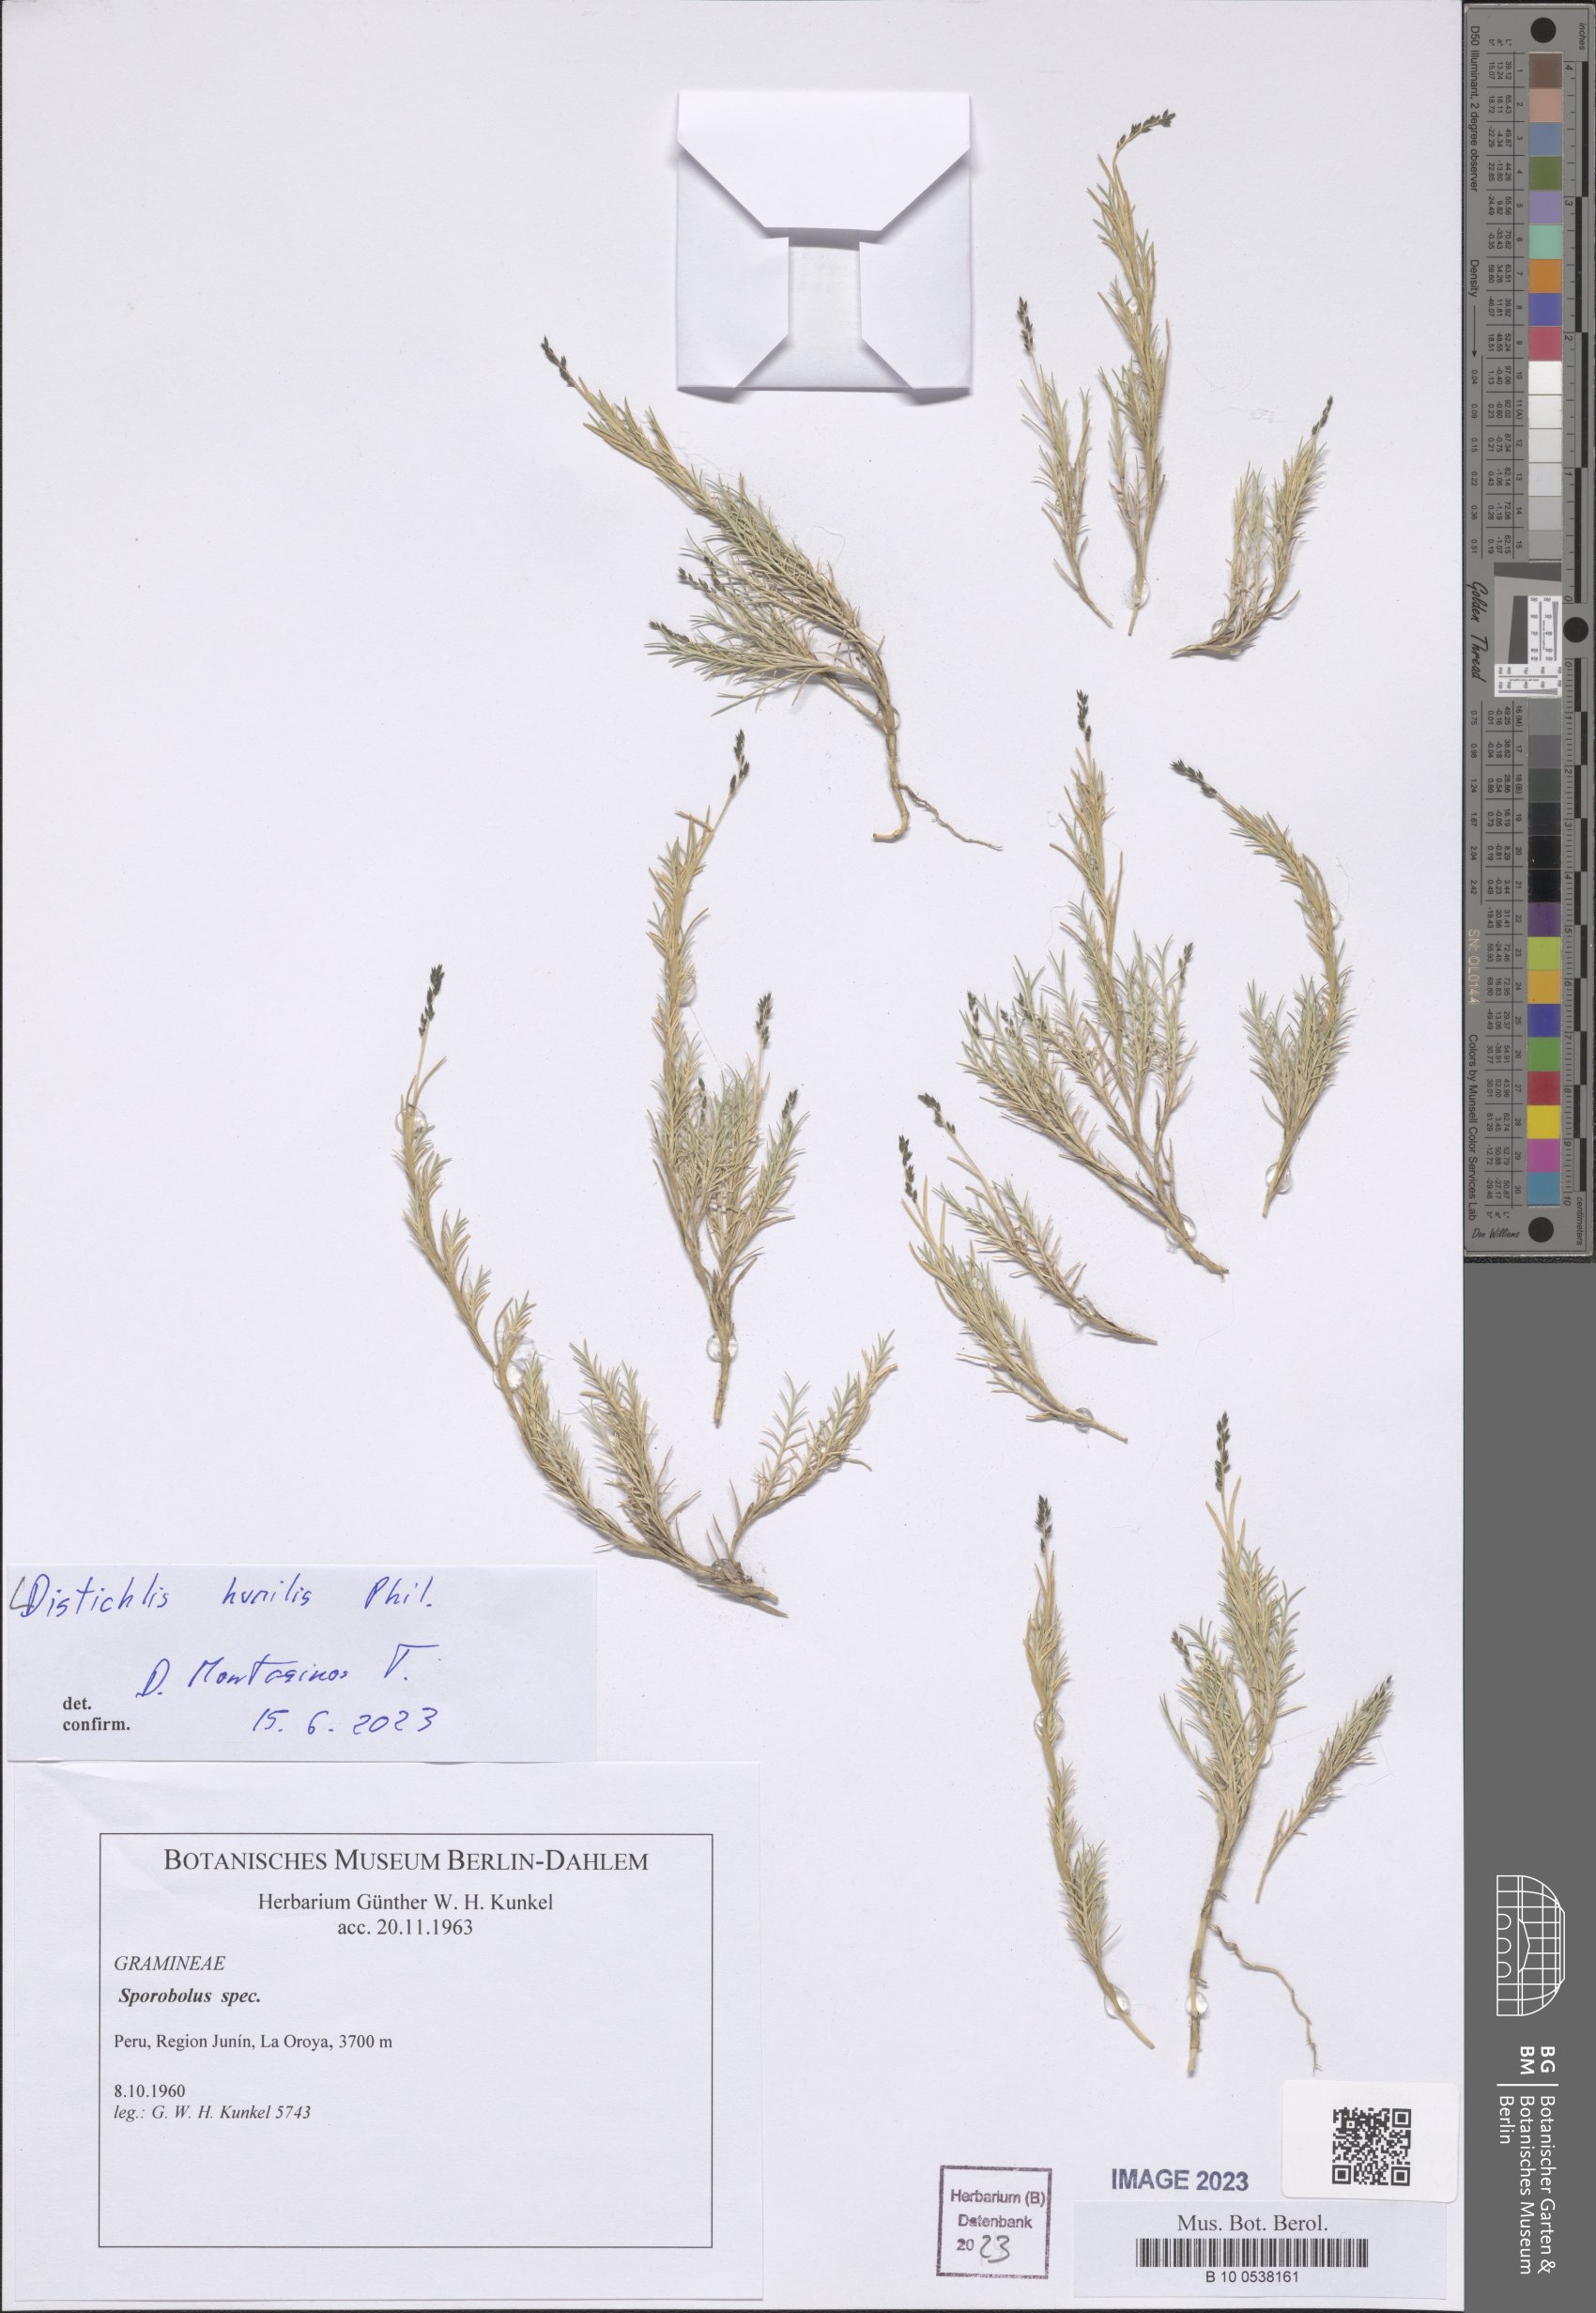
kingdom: Plantae
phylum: Tracheophyta
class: Liliopsida
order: Poales
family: Poaceae
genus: Distichlis
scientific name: Distichlis humilis
